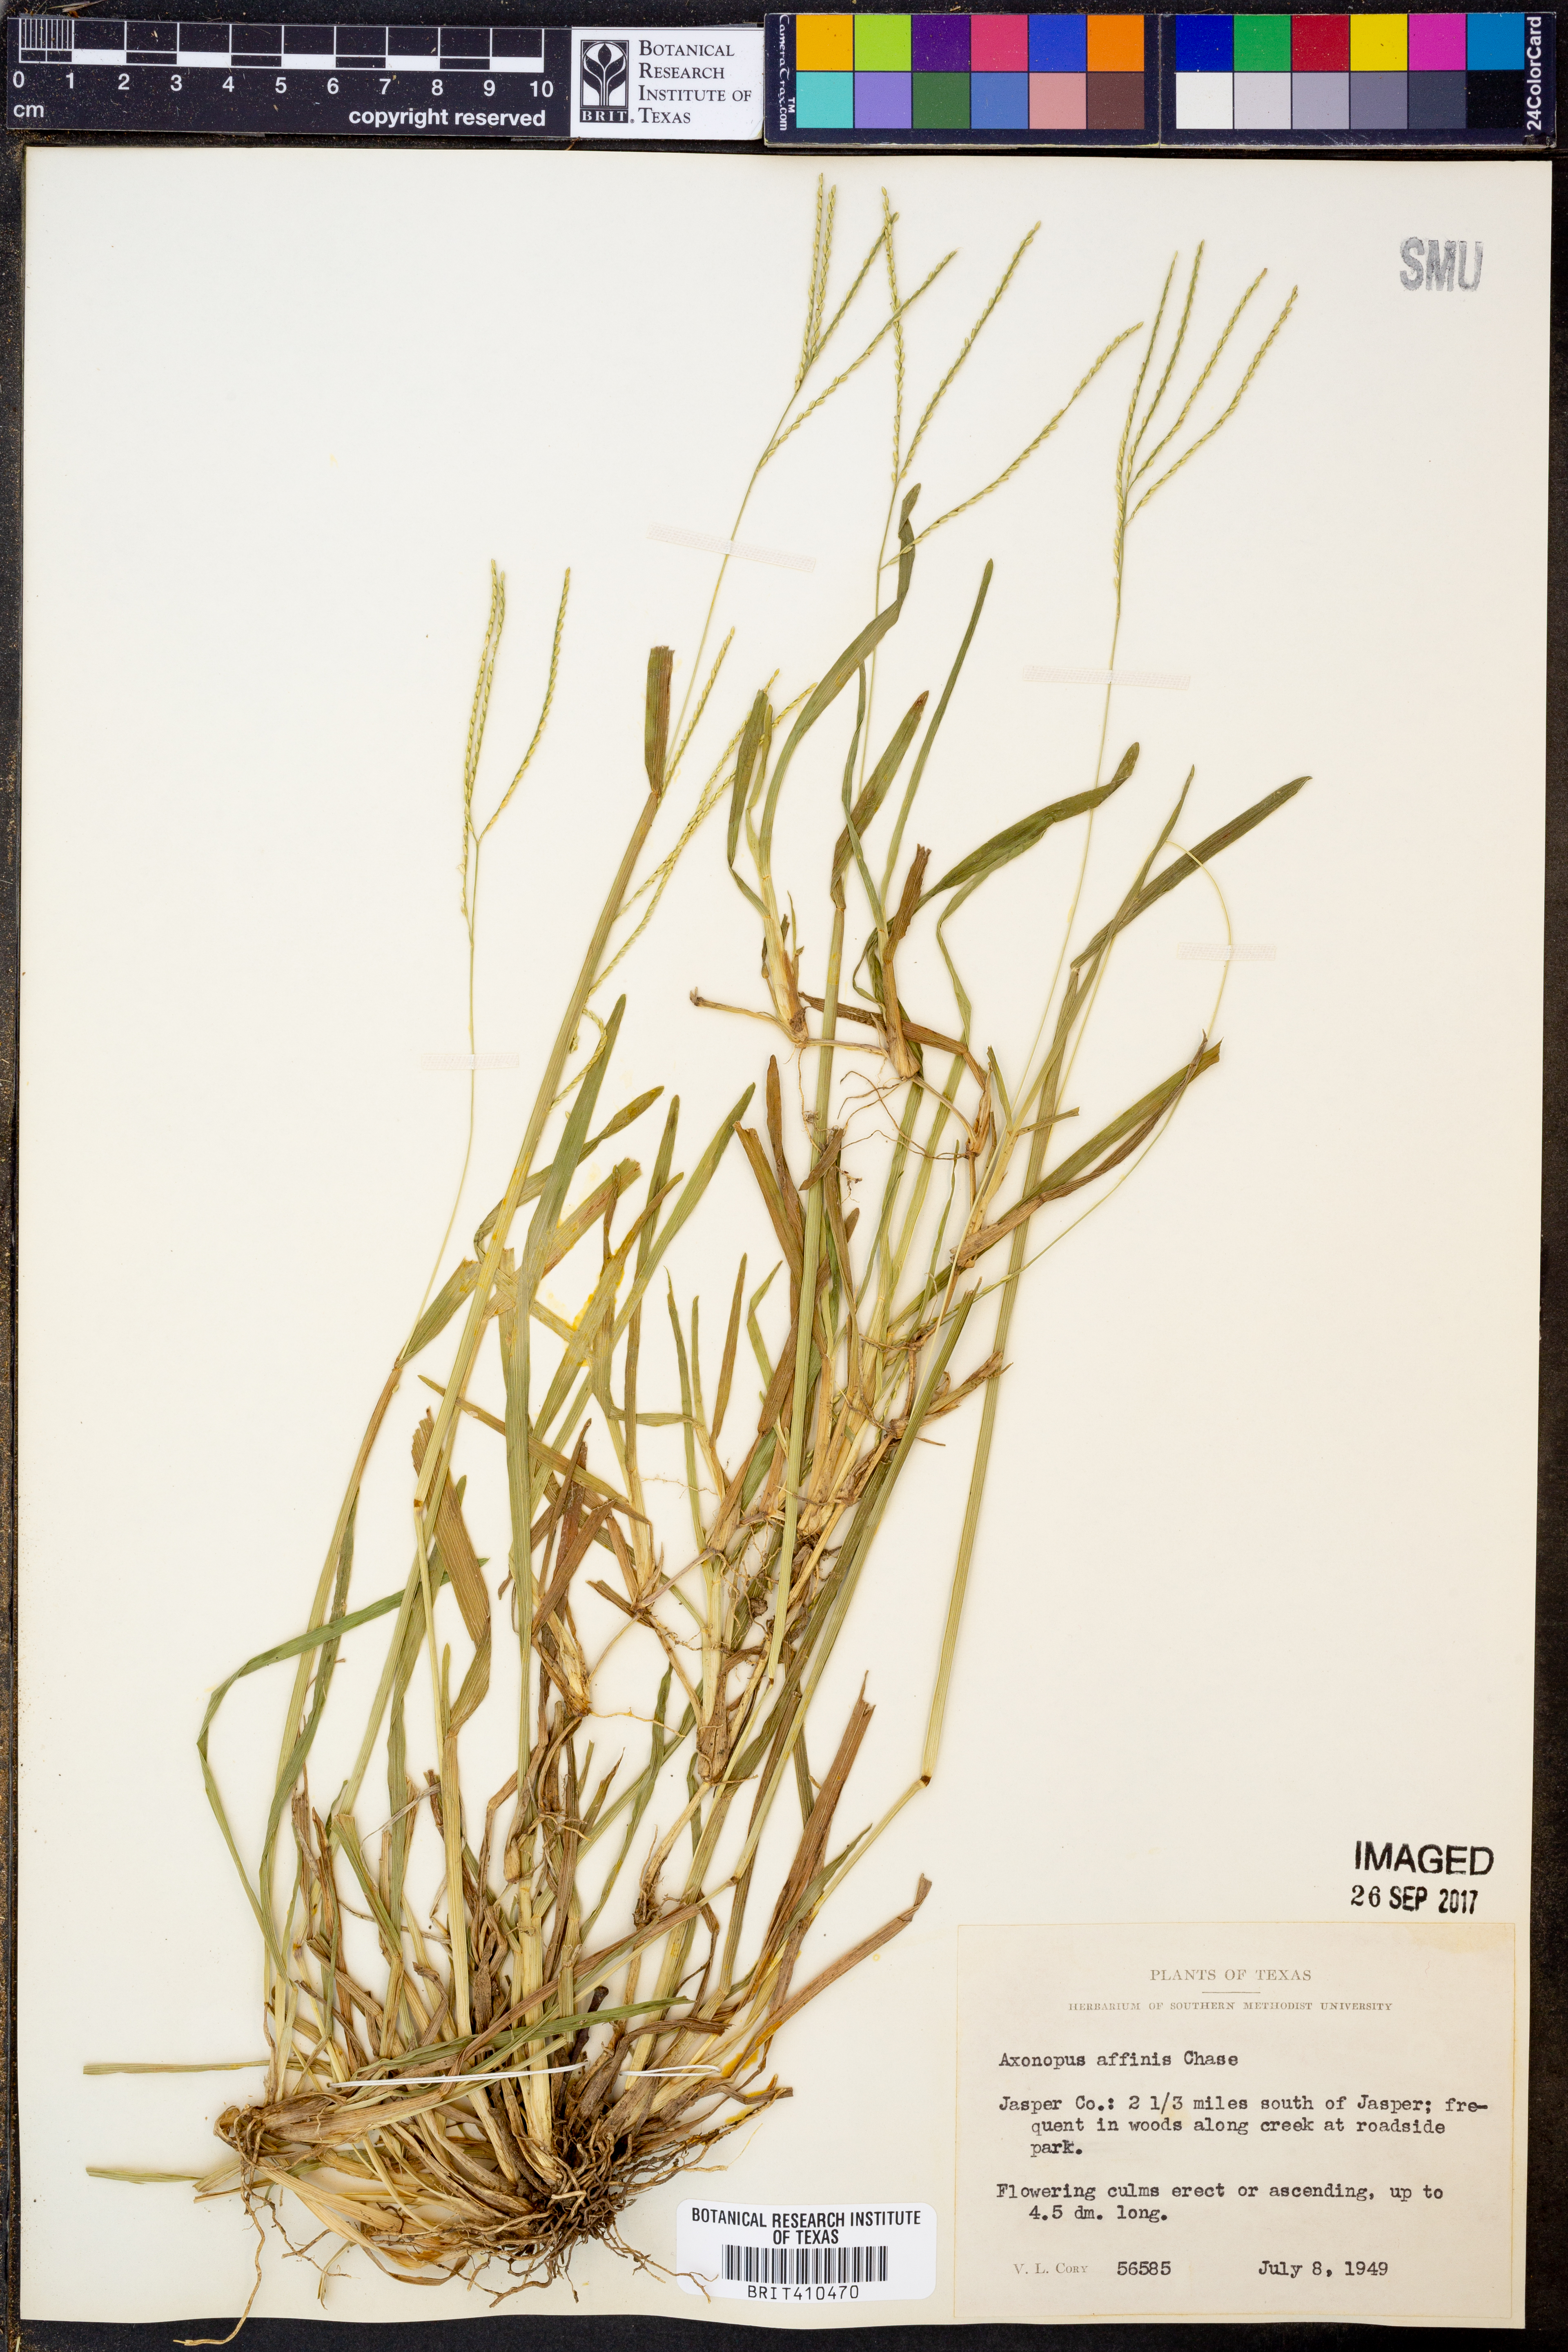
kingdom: Plantae
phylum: Tracheophyta
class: Liliopsida
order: Poales
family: Poaceae
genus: Axonopus
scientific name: Axonopus fissifolius
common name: Common carpetgrass
